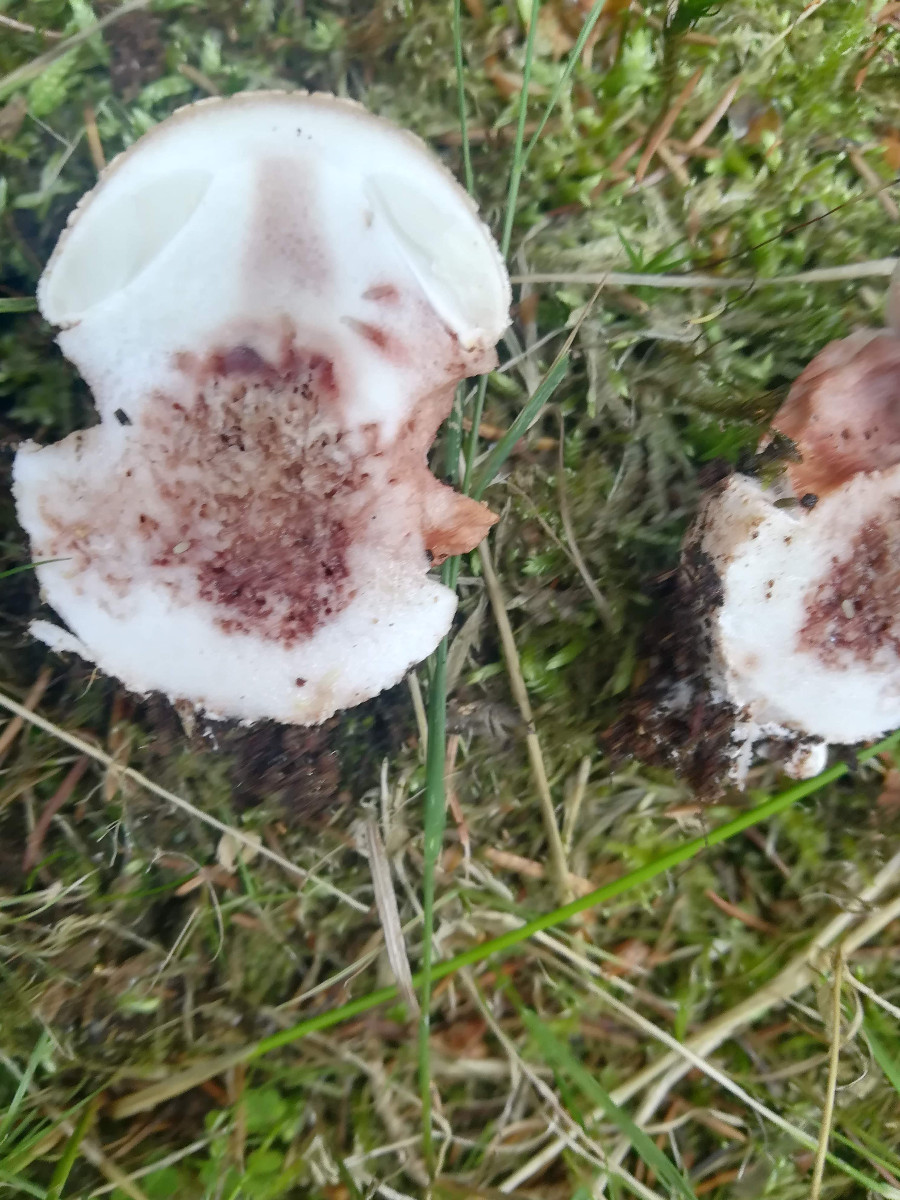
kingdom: Fungi
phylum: Basidiomycota
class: Agaricomycetes
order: Agaricales
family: Amanitaceae
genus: Amanita
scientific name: Amanita rubescens
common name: rødmende fluesvamp
